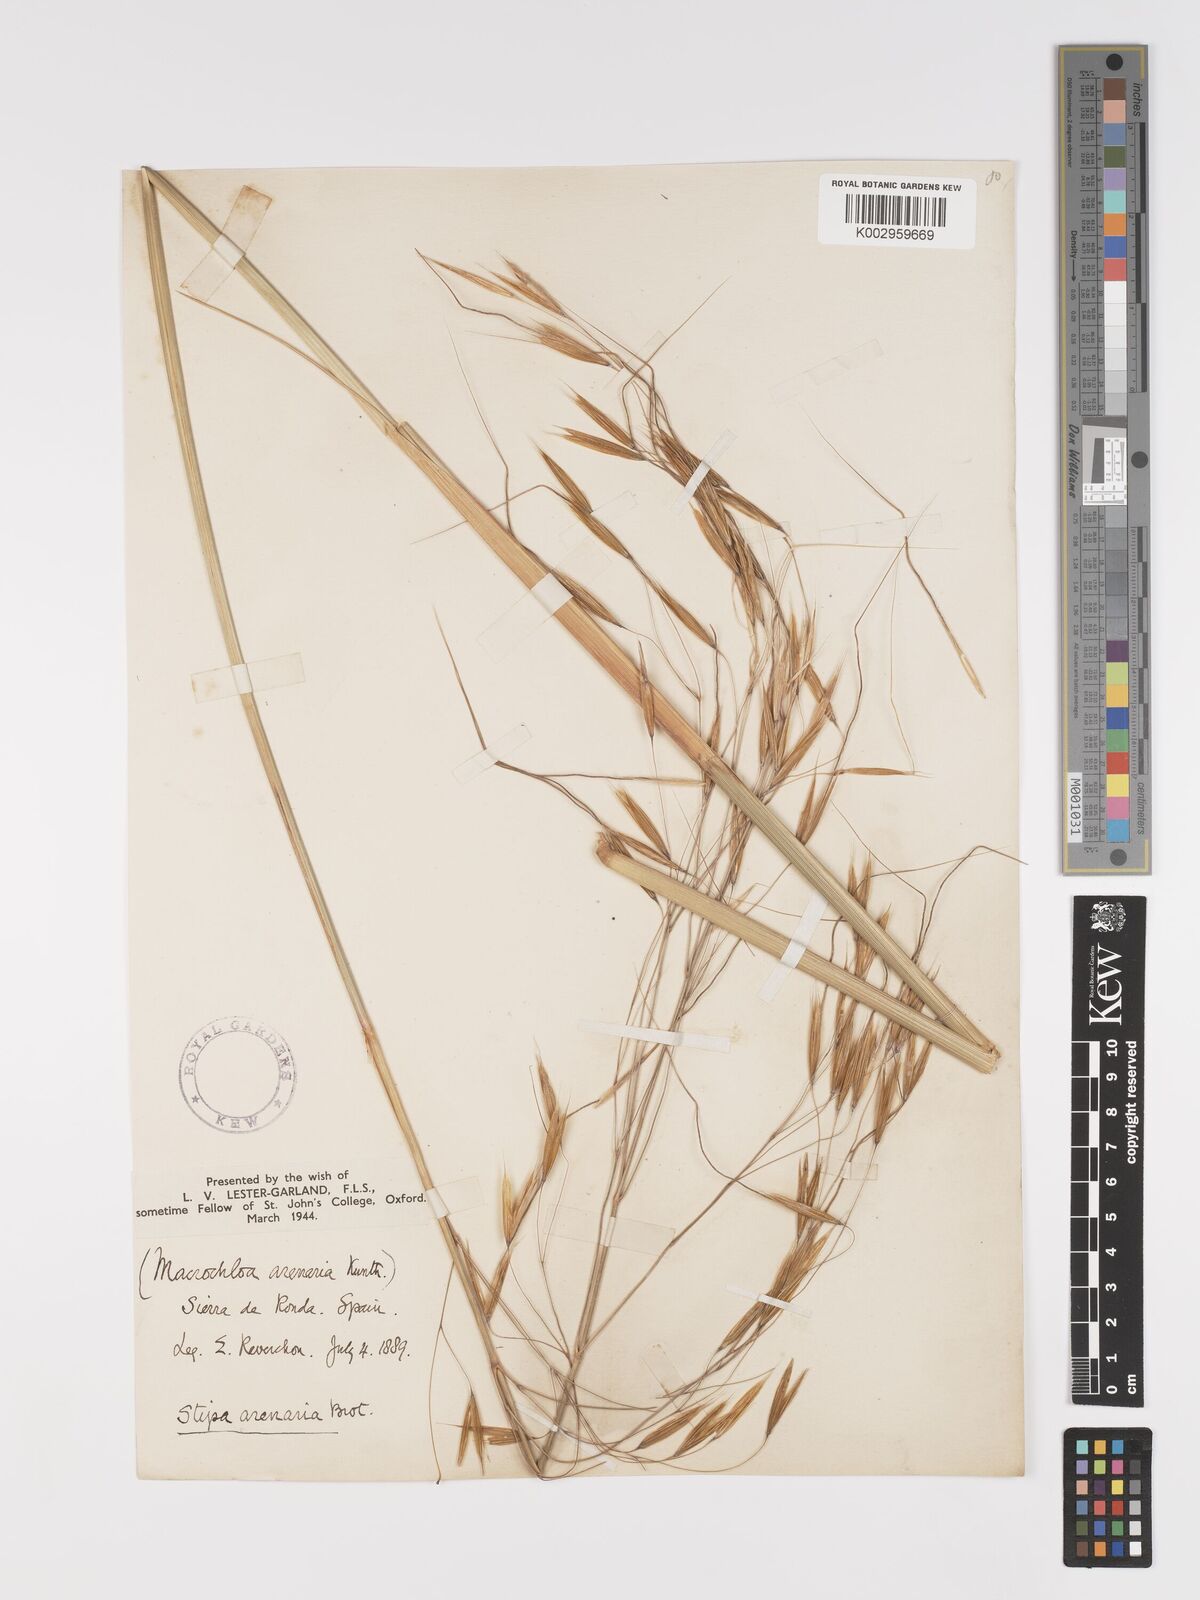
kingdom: Plantae
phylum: Tracheophyta
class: Liliopsida
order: Poales
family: Poaceae
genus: Celtica
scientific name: Celtica gigantea
